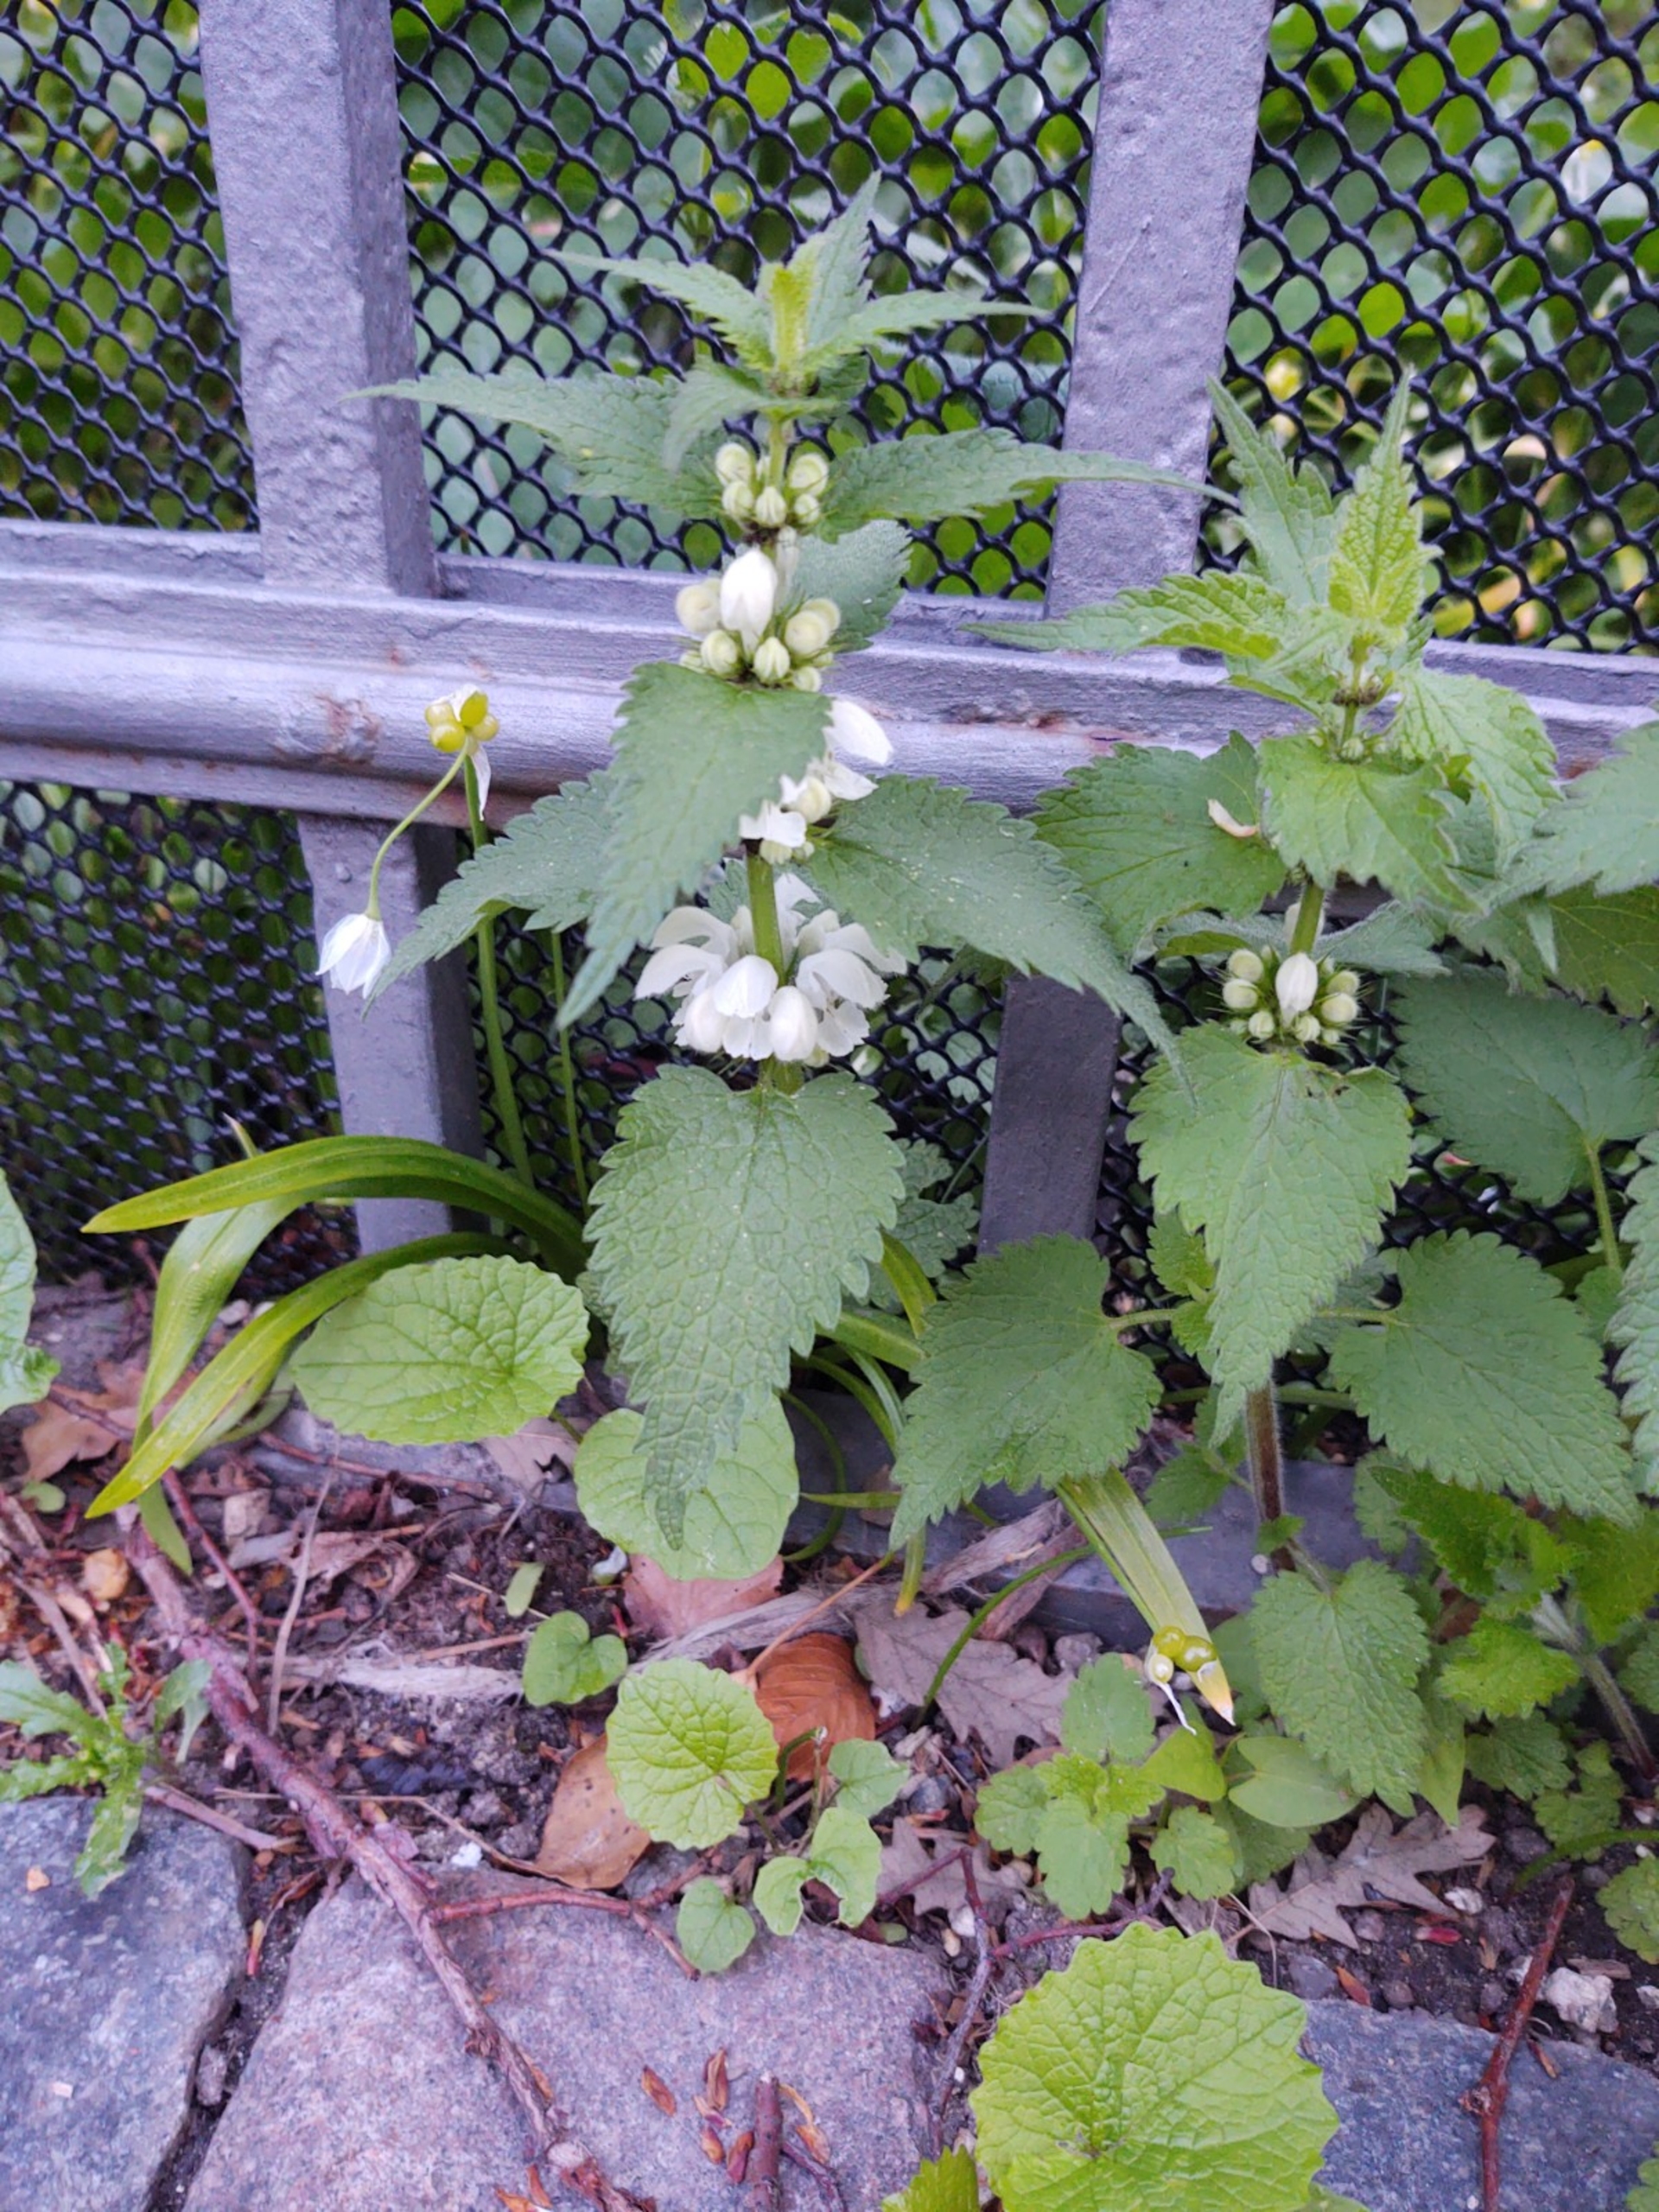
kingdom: Plantae
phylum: Tracheophyta
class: Magnoliopsida
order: Lamiales
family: Lamiaceae
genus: Lamium
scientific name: Lamium album
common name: Døvnælde
